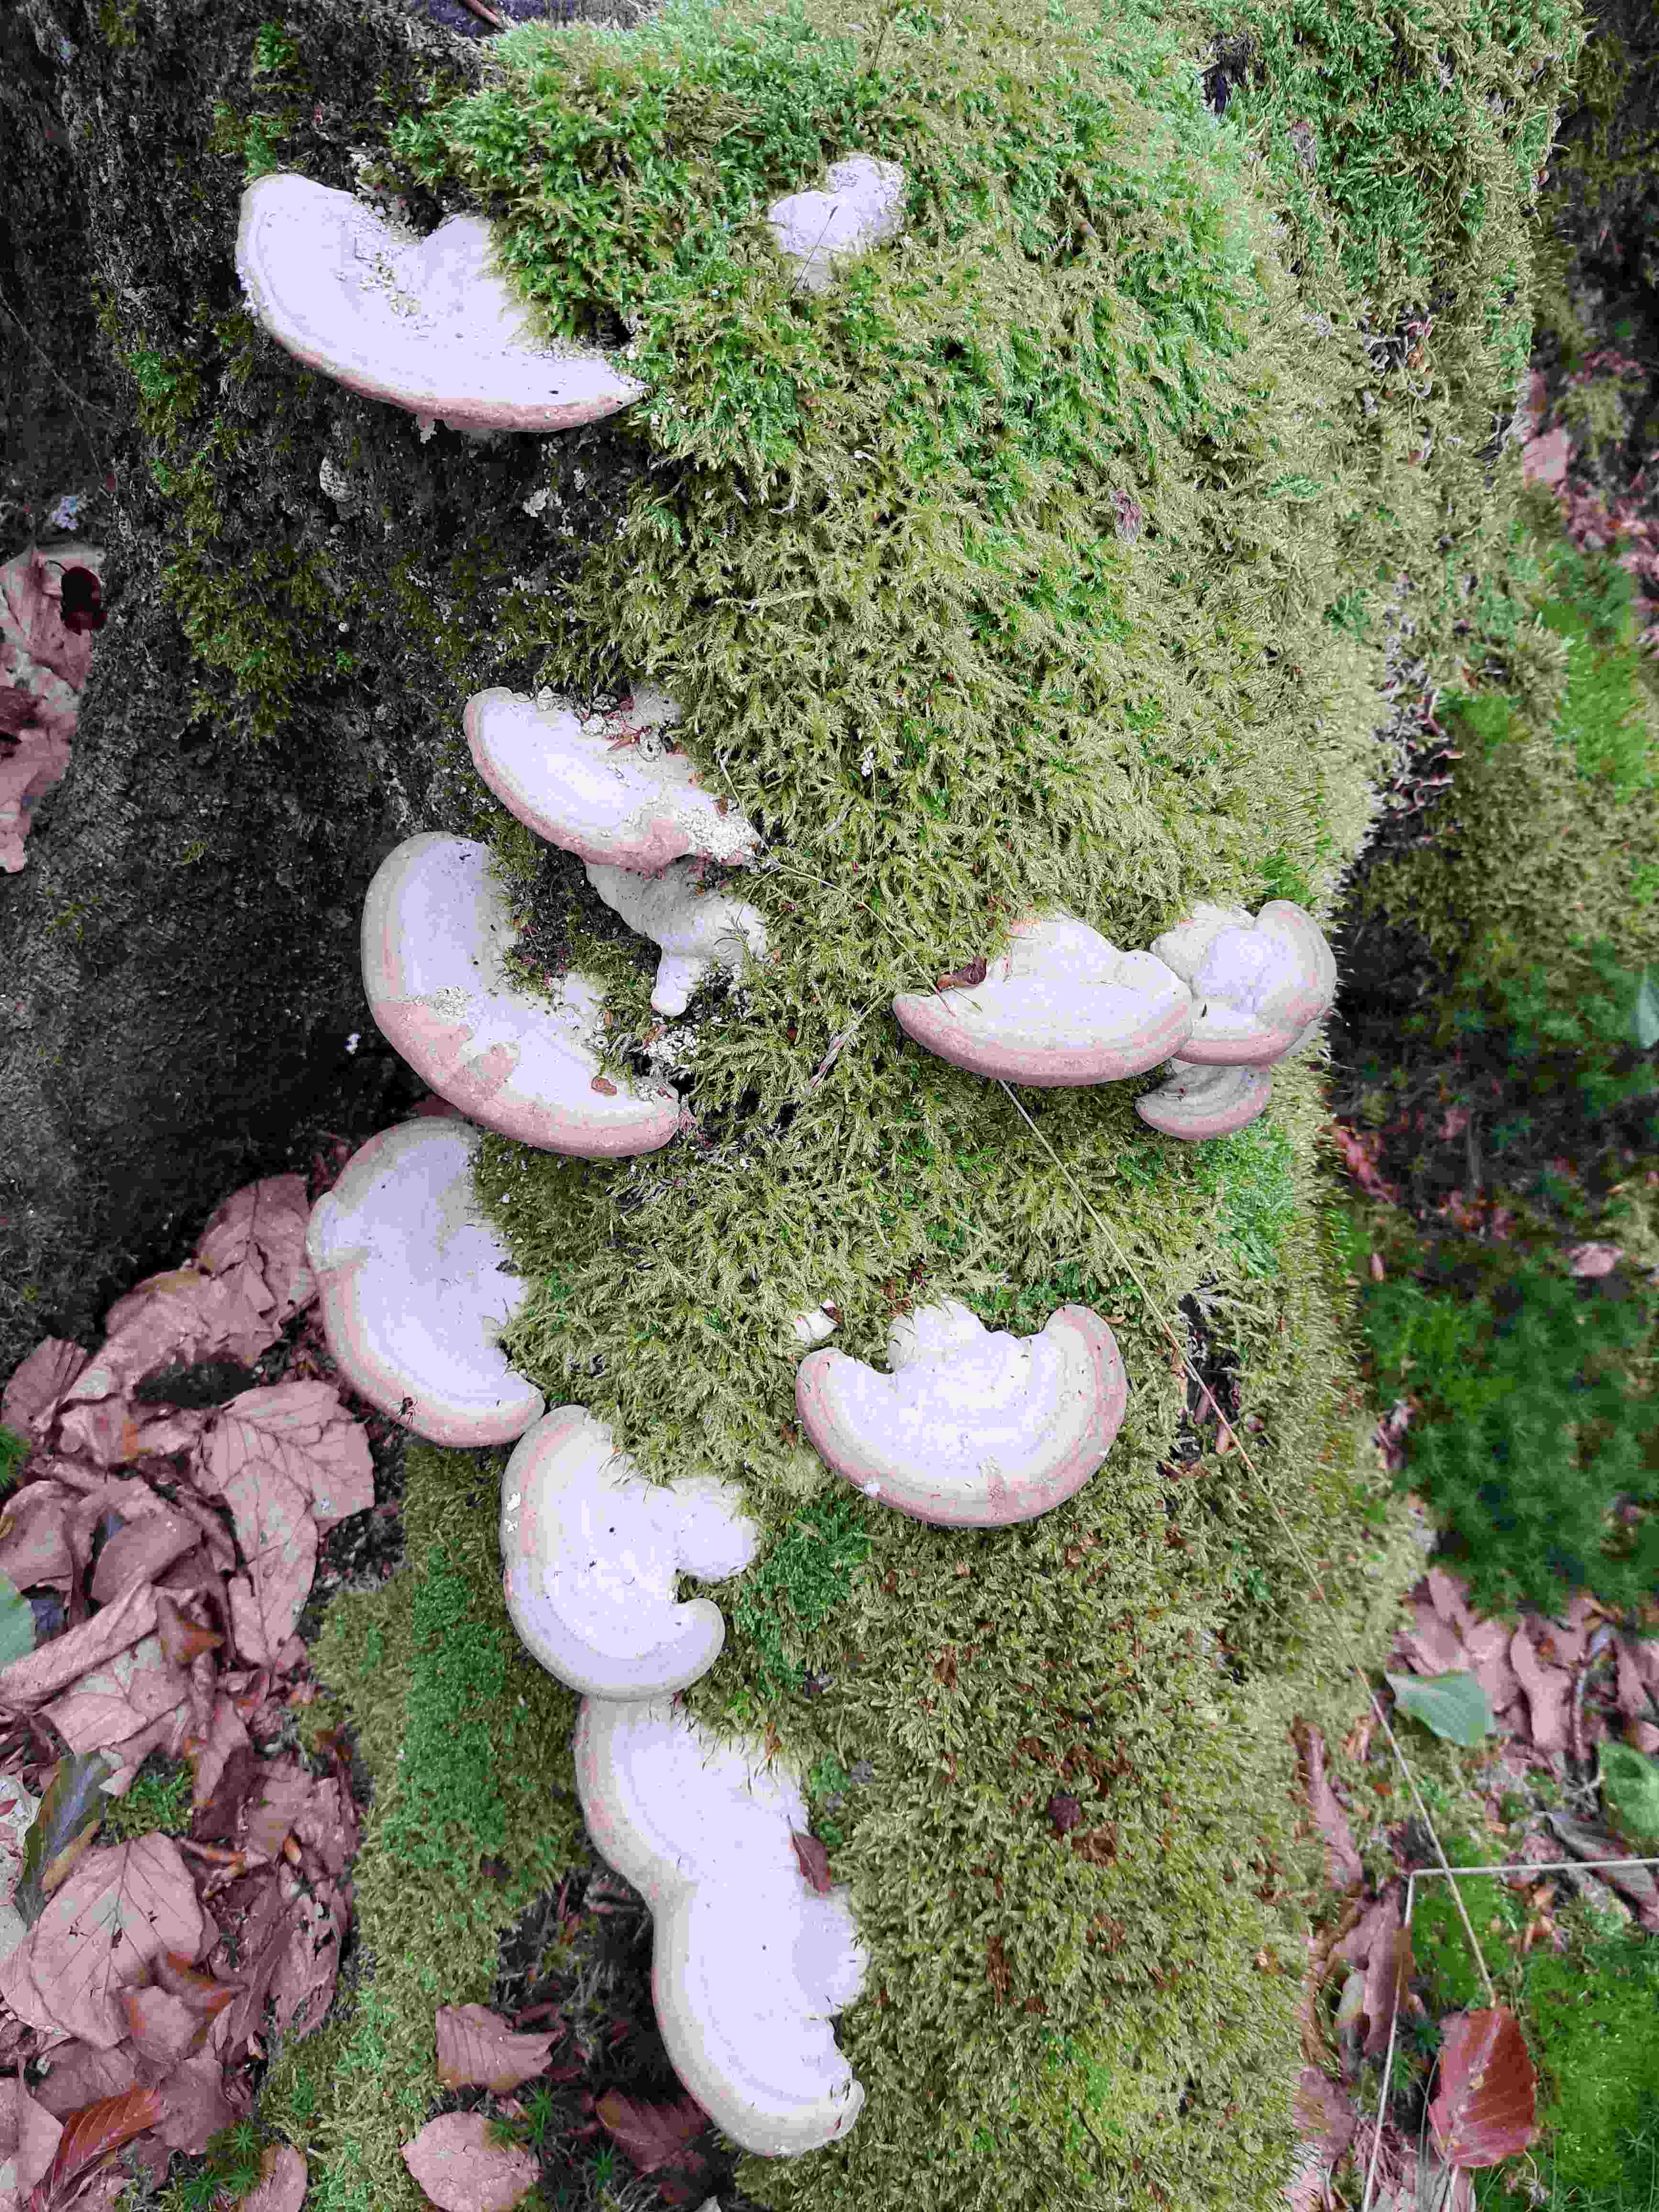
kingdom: Fungi
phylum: Basidiomycota
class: Agaricomycetes
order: Polyporales
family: Polyporaceae
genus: Trametes
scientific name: Trametes gibbosa
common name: puklet læderporesvamp
